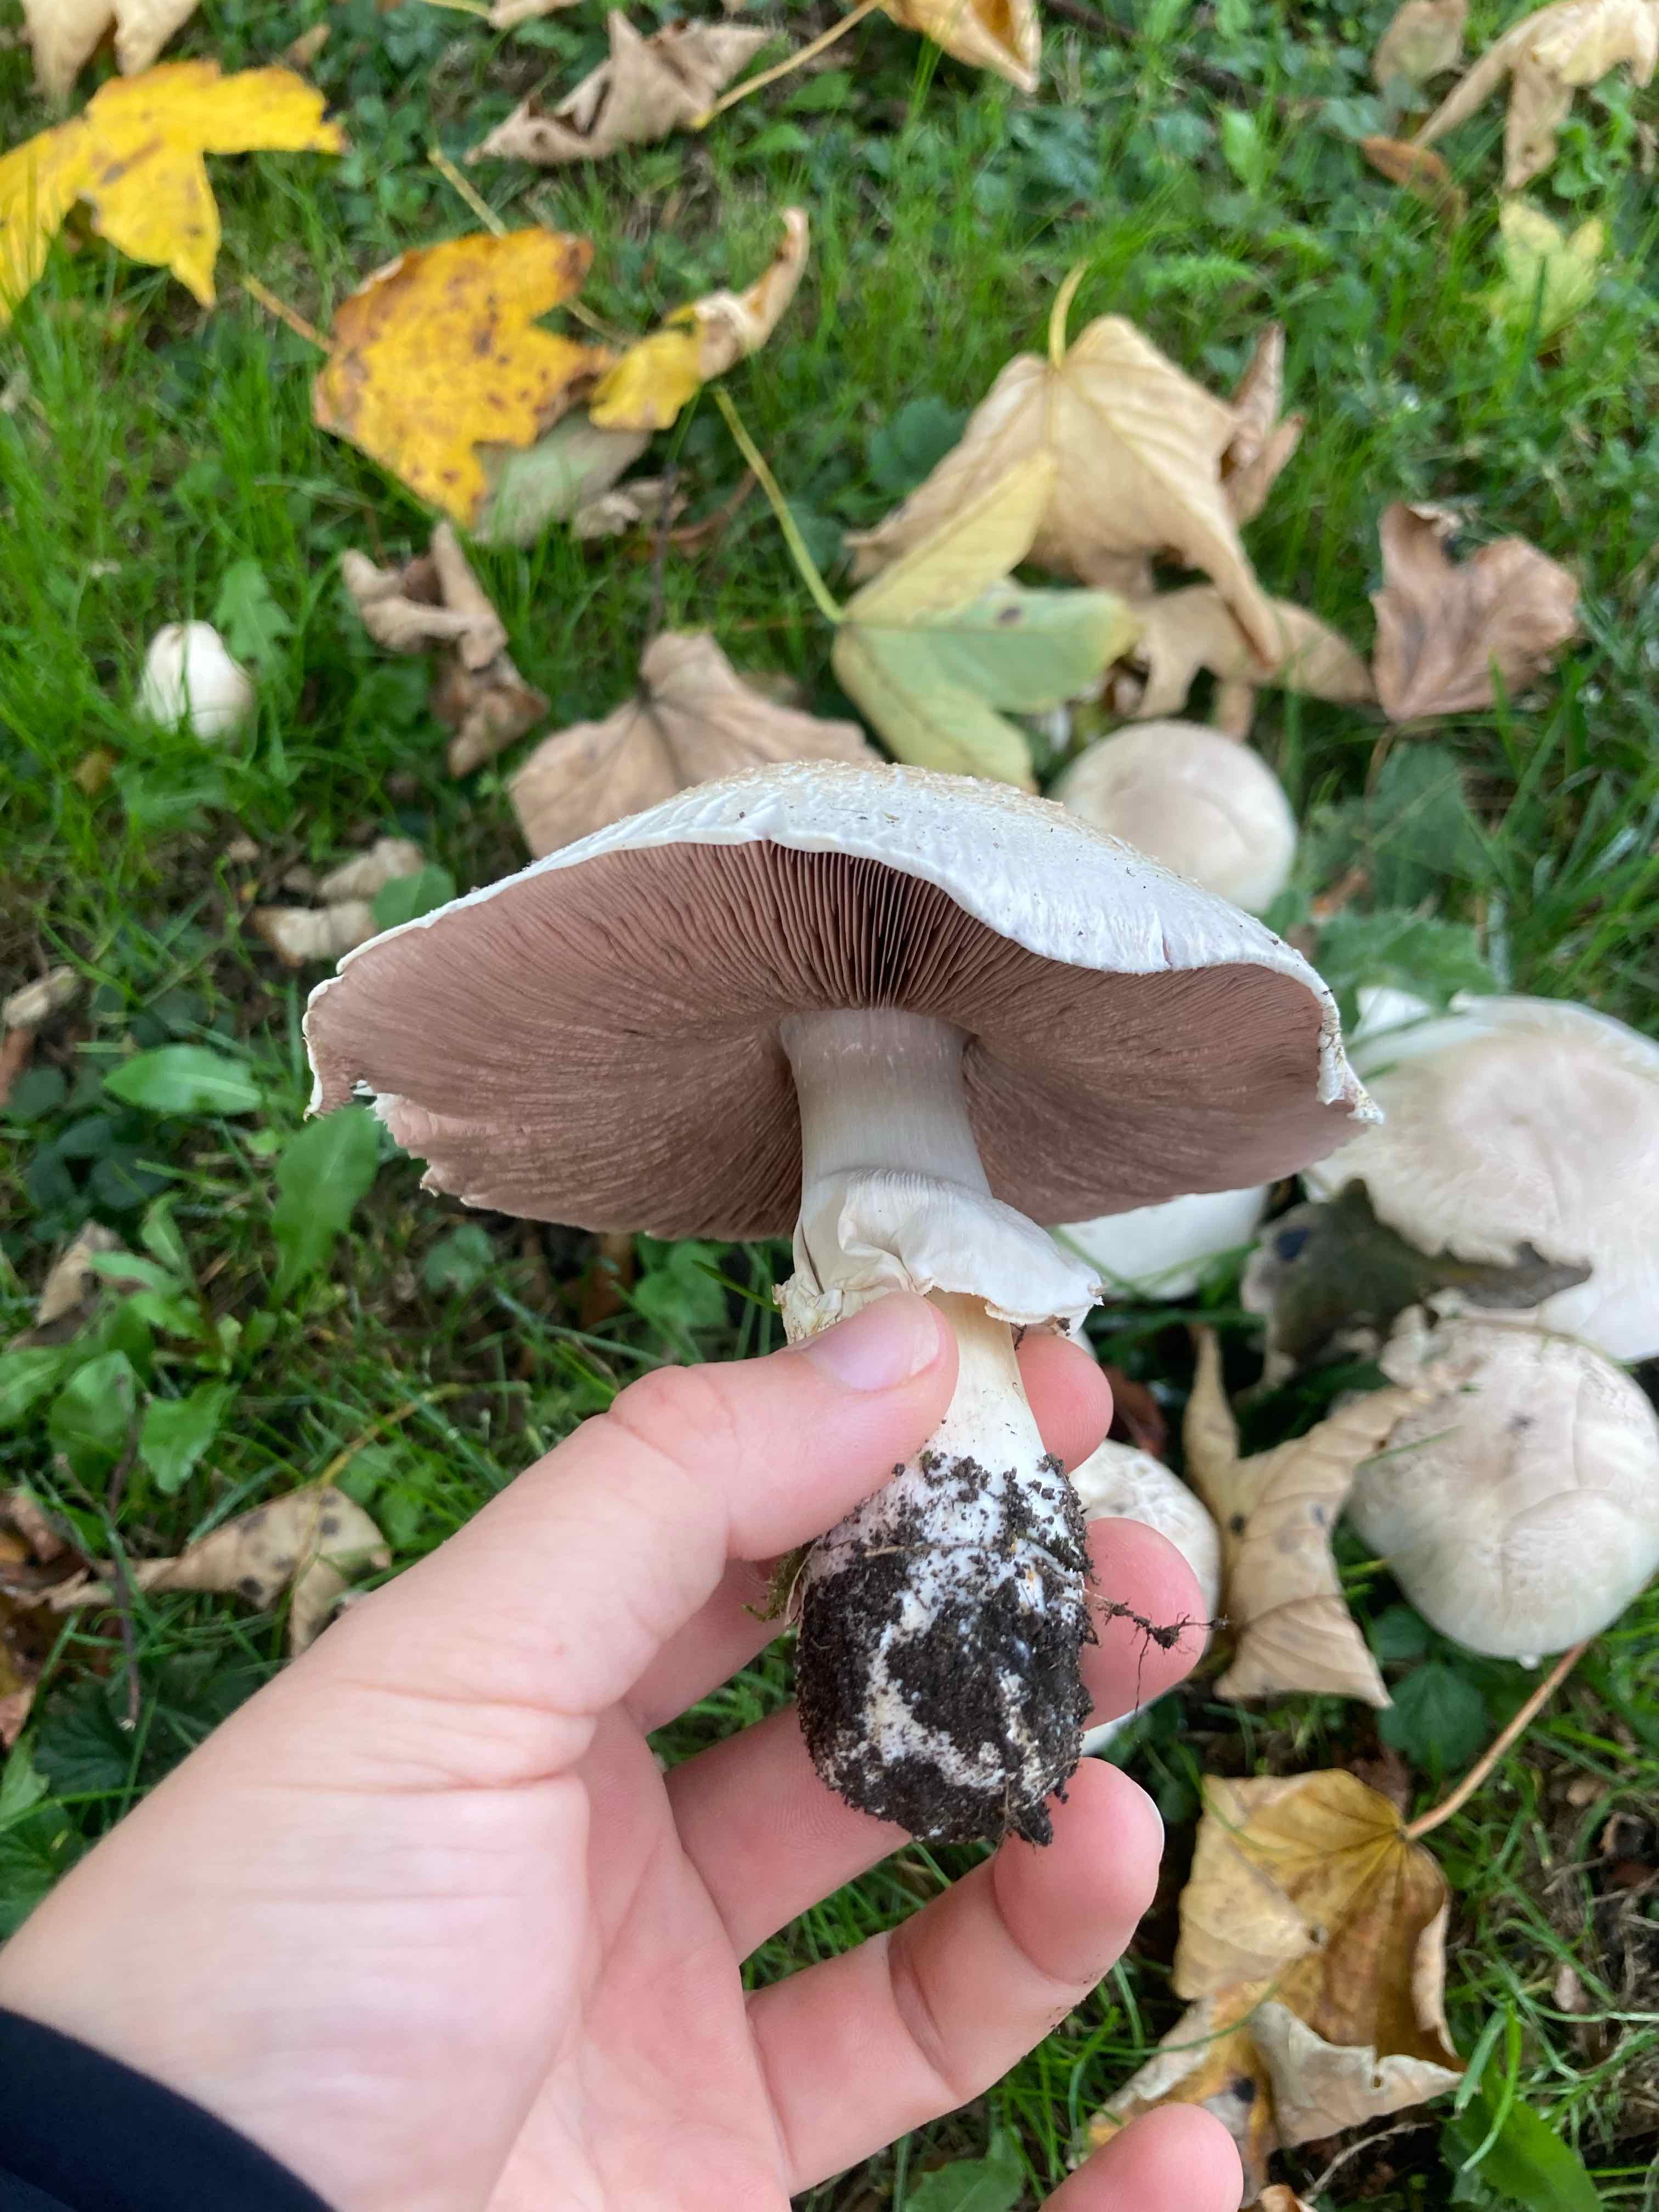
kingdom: Fungi
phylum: Basidiomycota
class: Agaricomycetes
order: Agaricales
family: Agaricaceae
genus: Agaricus
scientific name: Agaricus xanthodermus
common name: karbol-champignon
